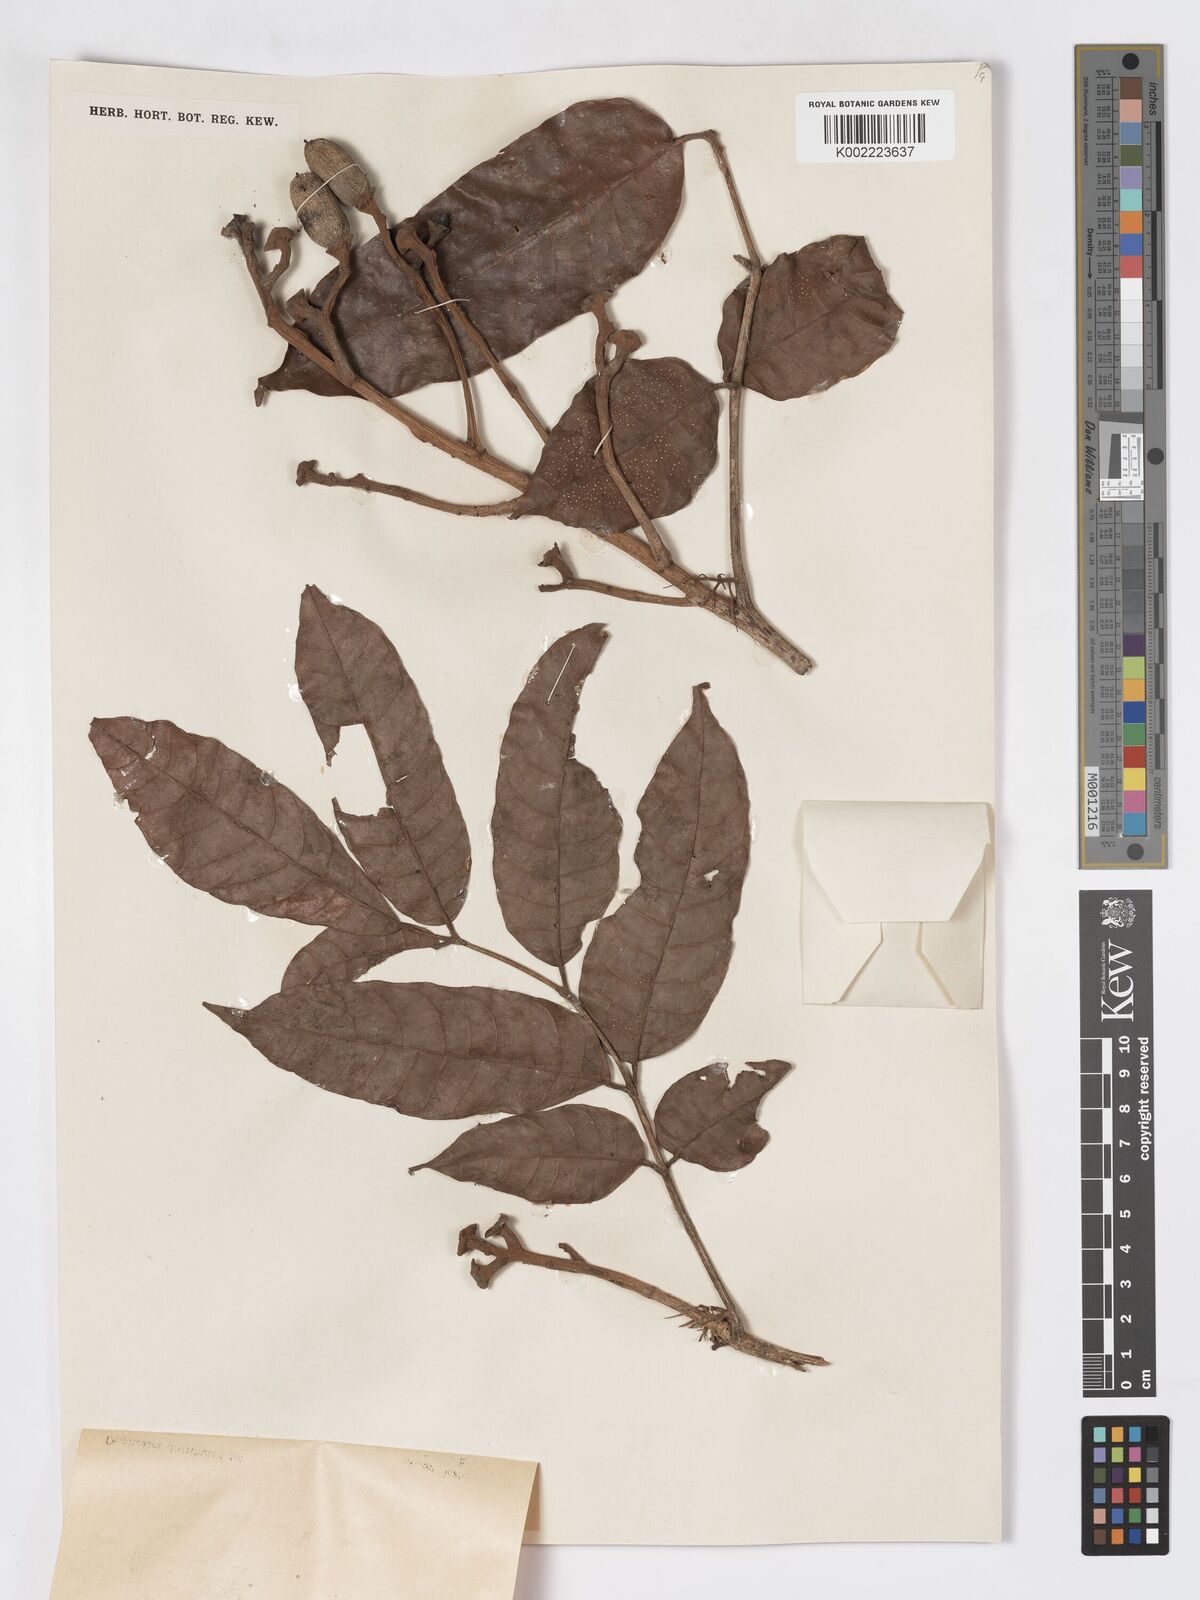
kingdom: Plantae
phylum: Tracheophyta
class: Magnoliopsida
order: Sapindales
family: Burseraceae
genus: Canarium
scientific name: Canarium denticulatum
